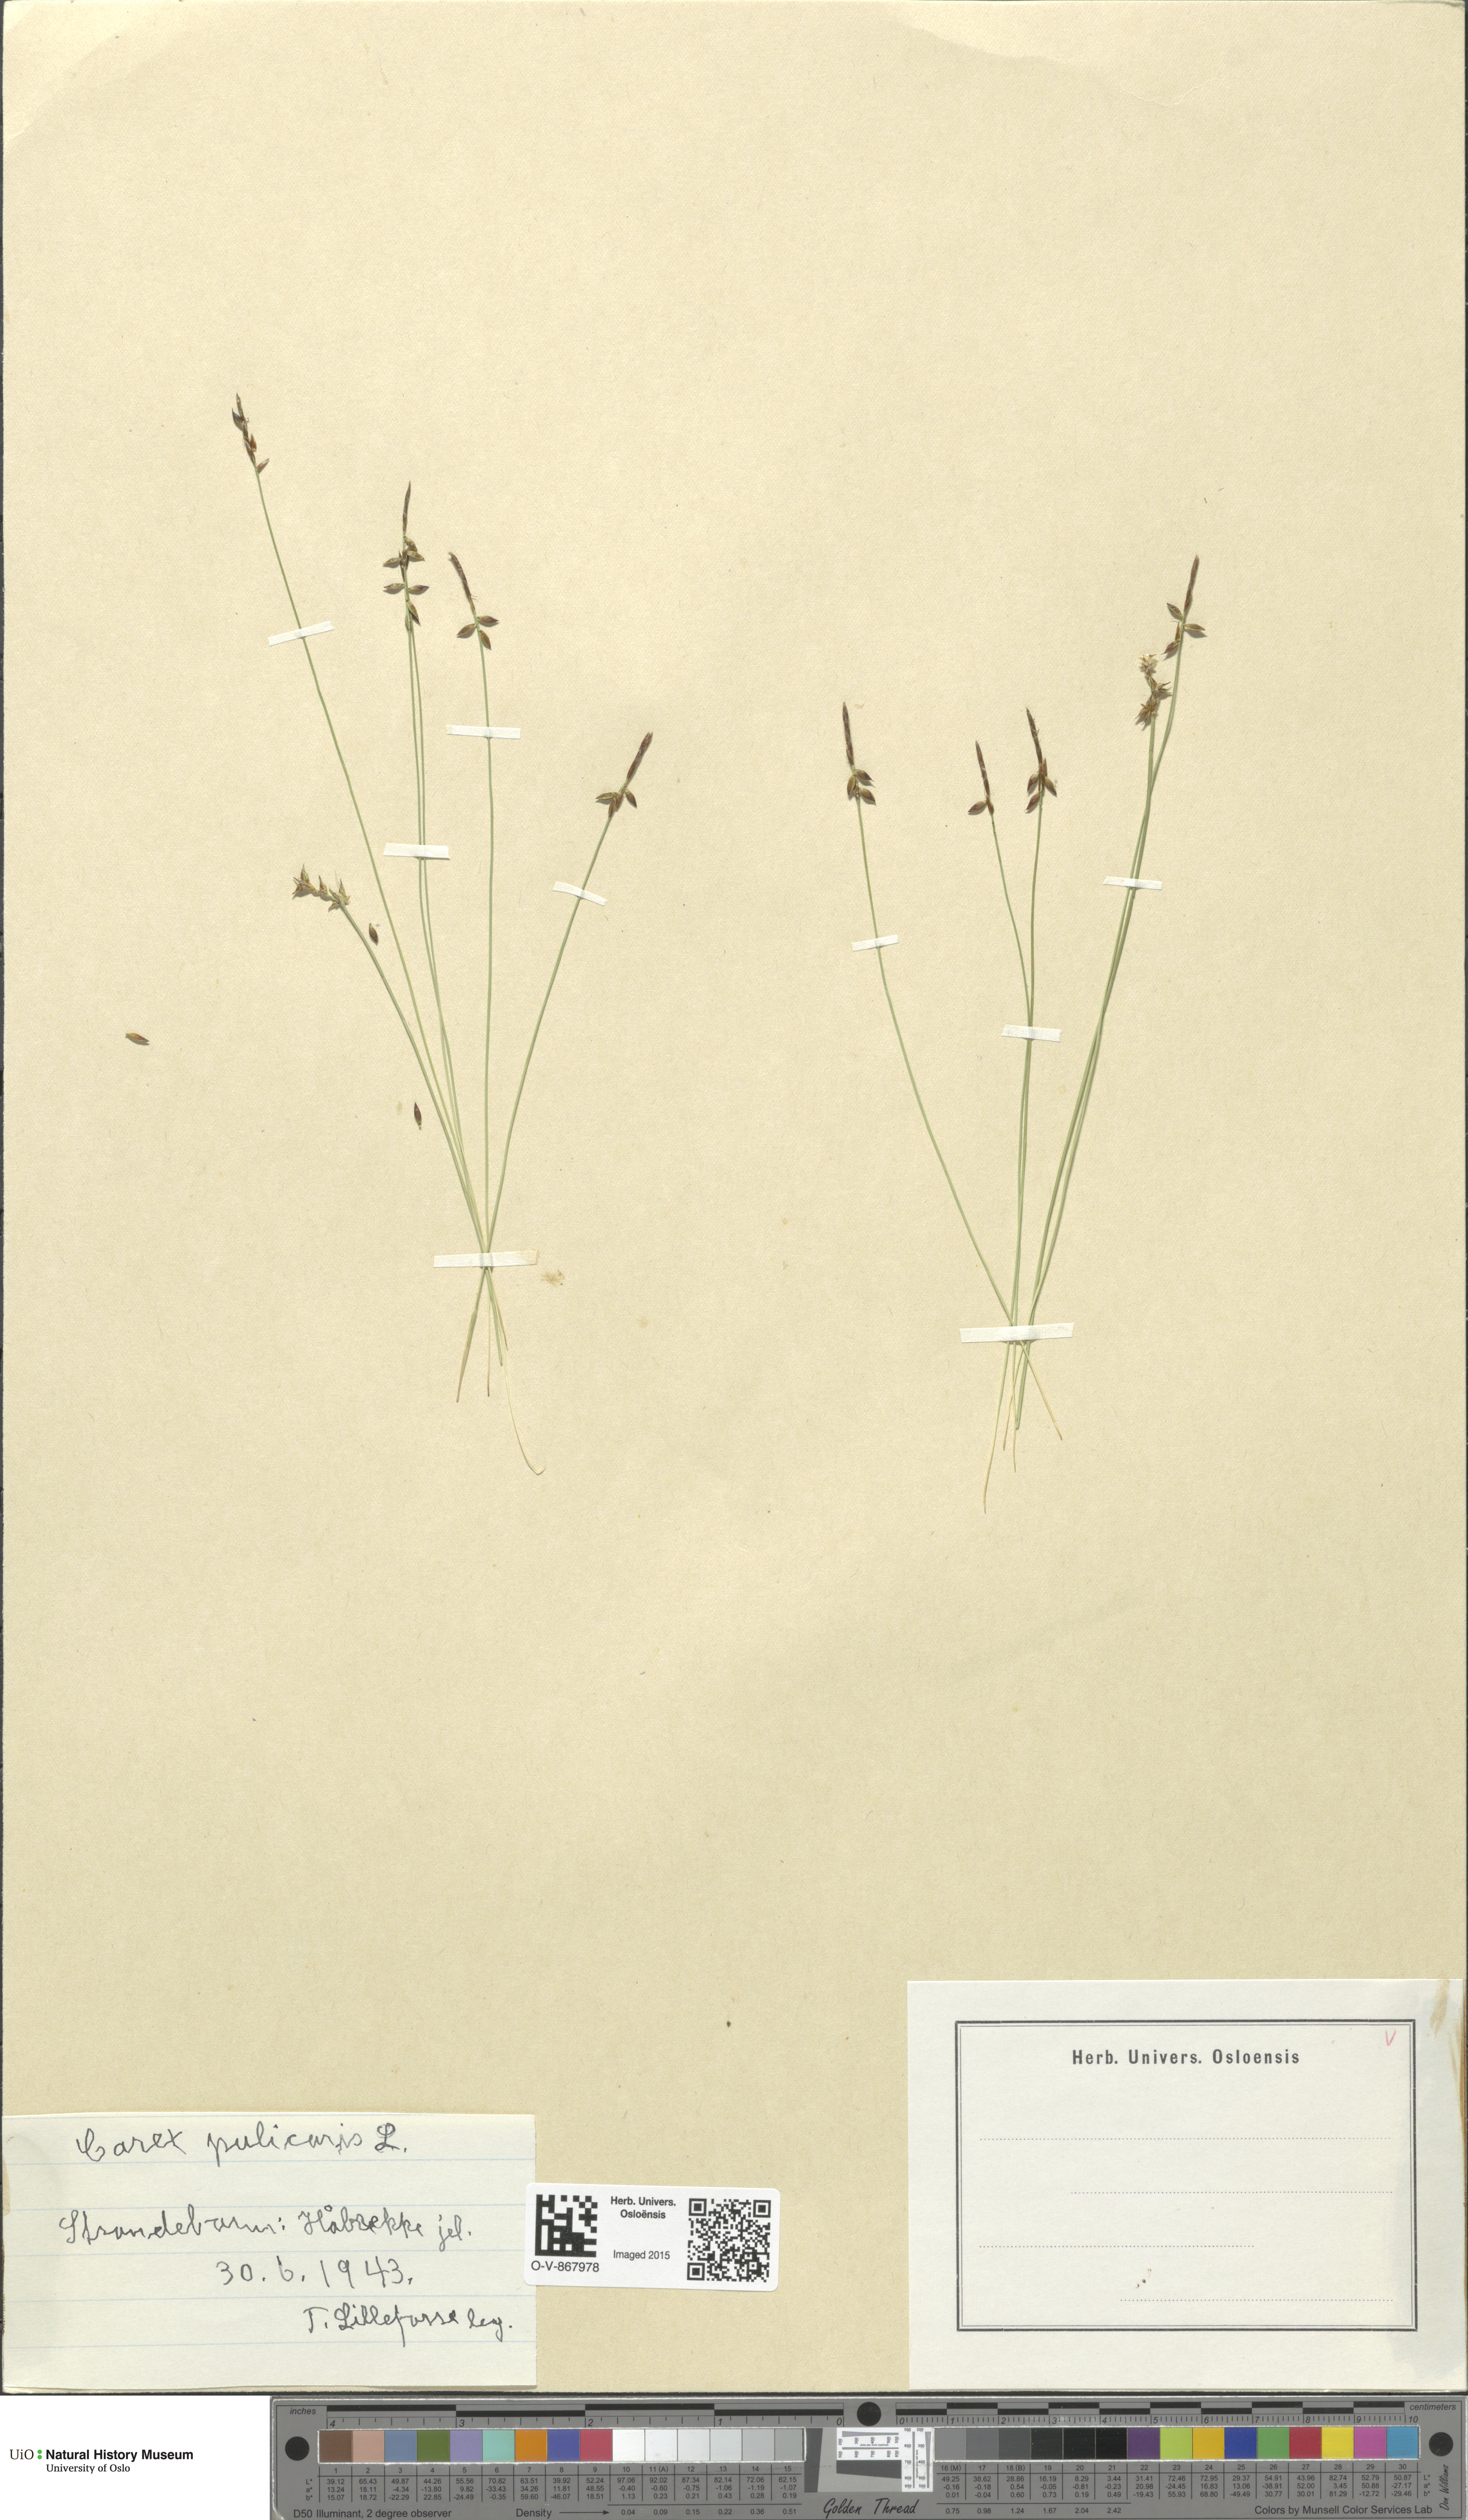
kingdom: Plantae
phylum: Tracheophyta
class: Liliopsida
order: Poales
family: Cyperaceae
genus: Carex
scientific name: Carex pulicaris
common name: Flea sedge
